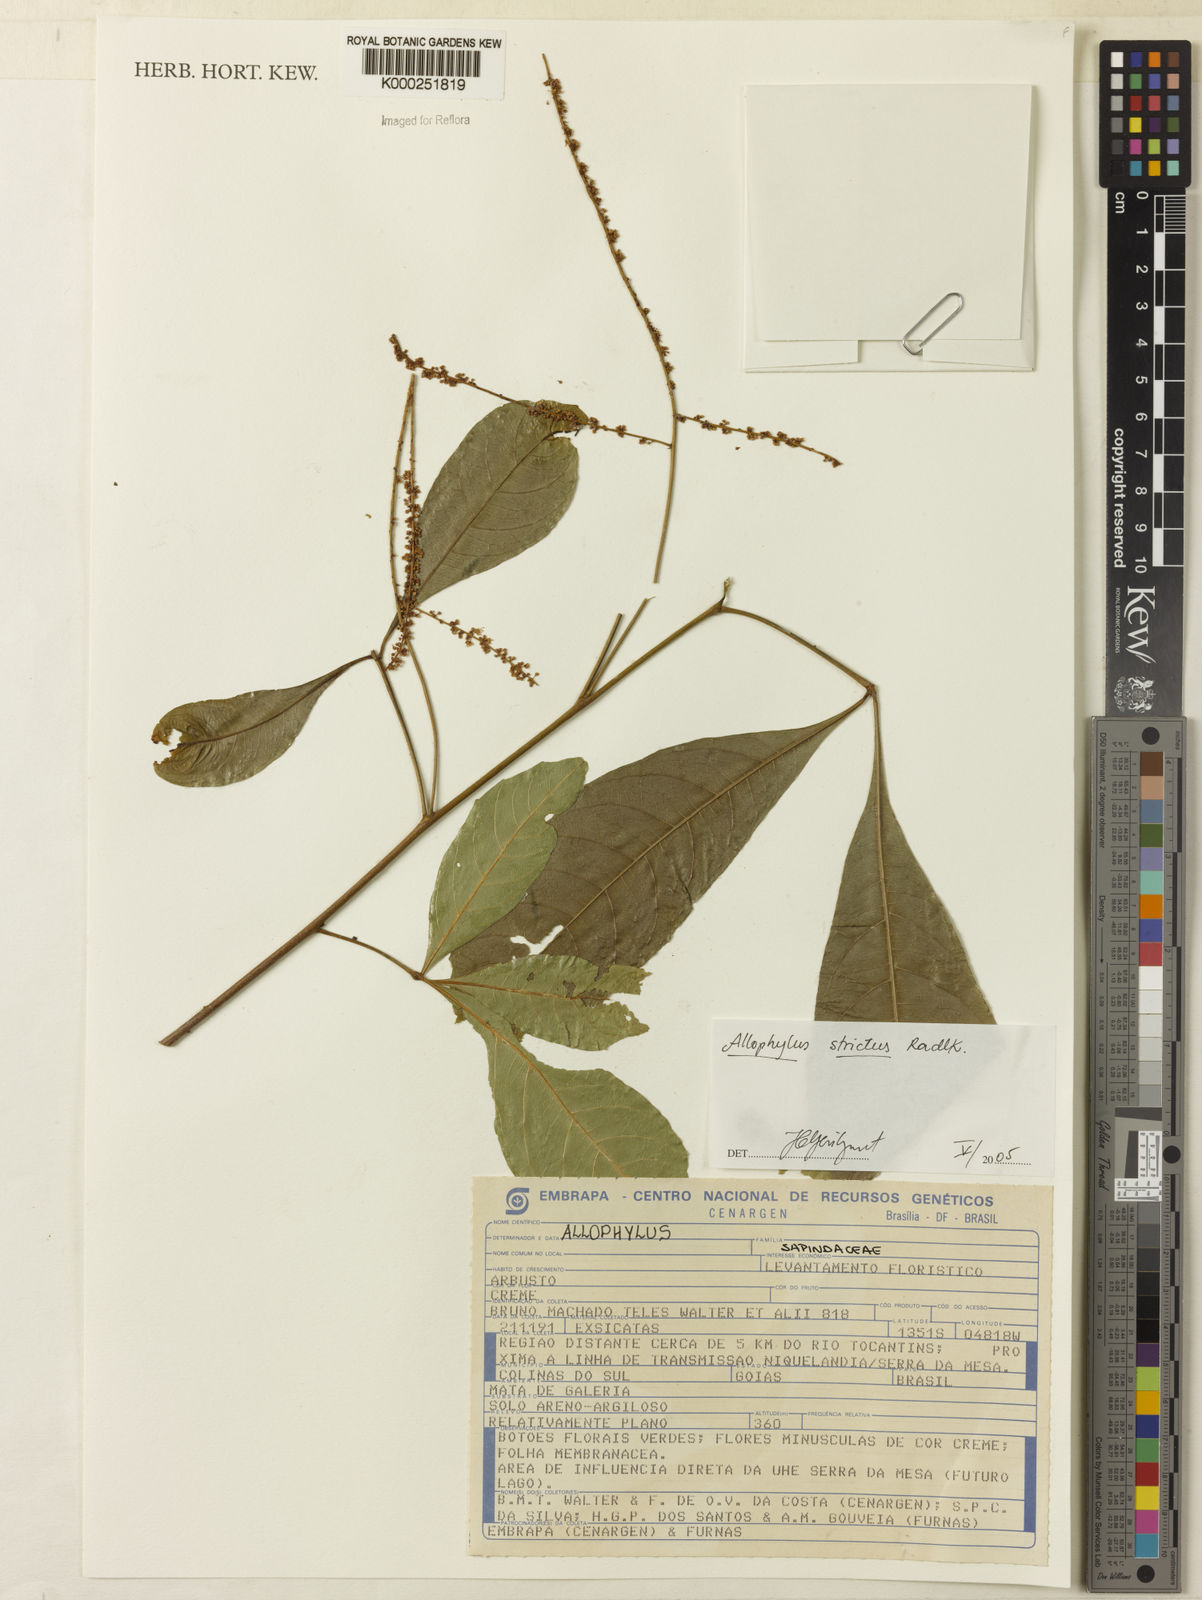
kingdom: Plantae
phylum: Tracheophyta
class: Magnoliopsida
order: Sapindales
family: Sapindaceae
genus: Allophylus
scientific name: Allophylus strictus
